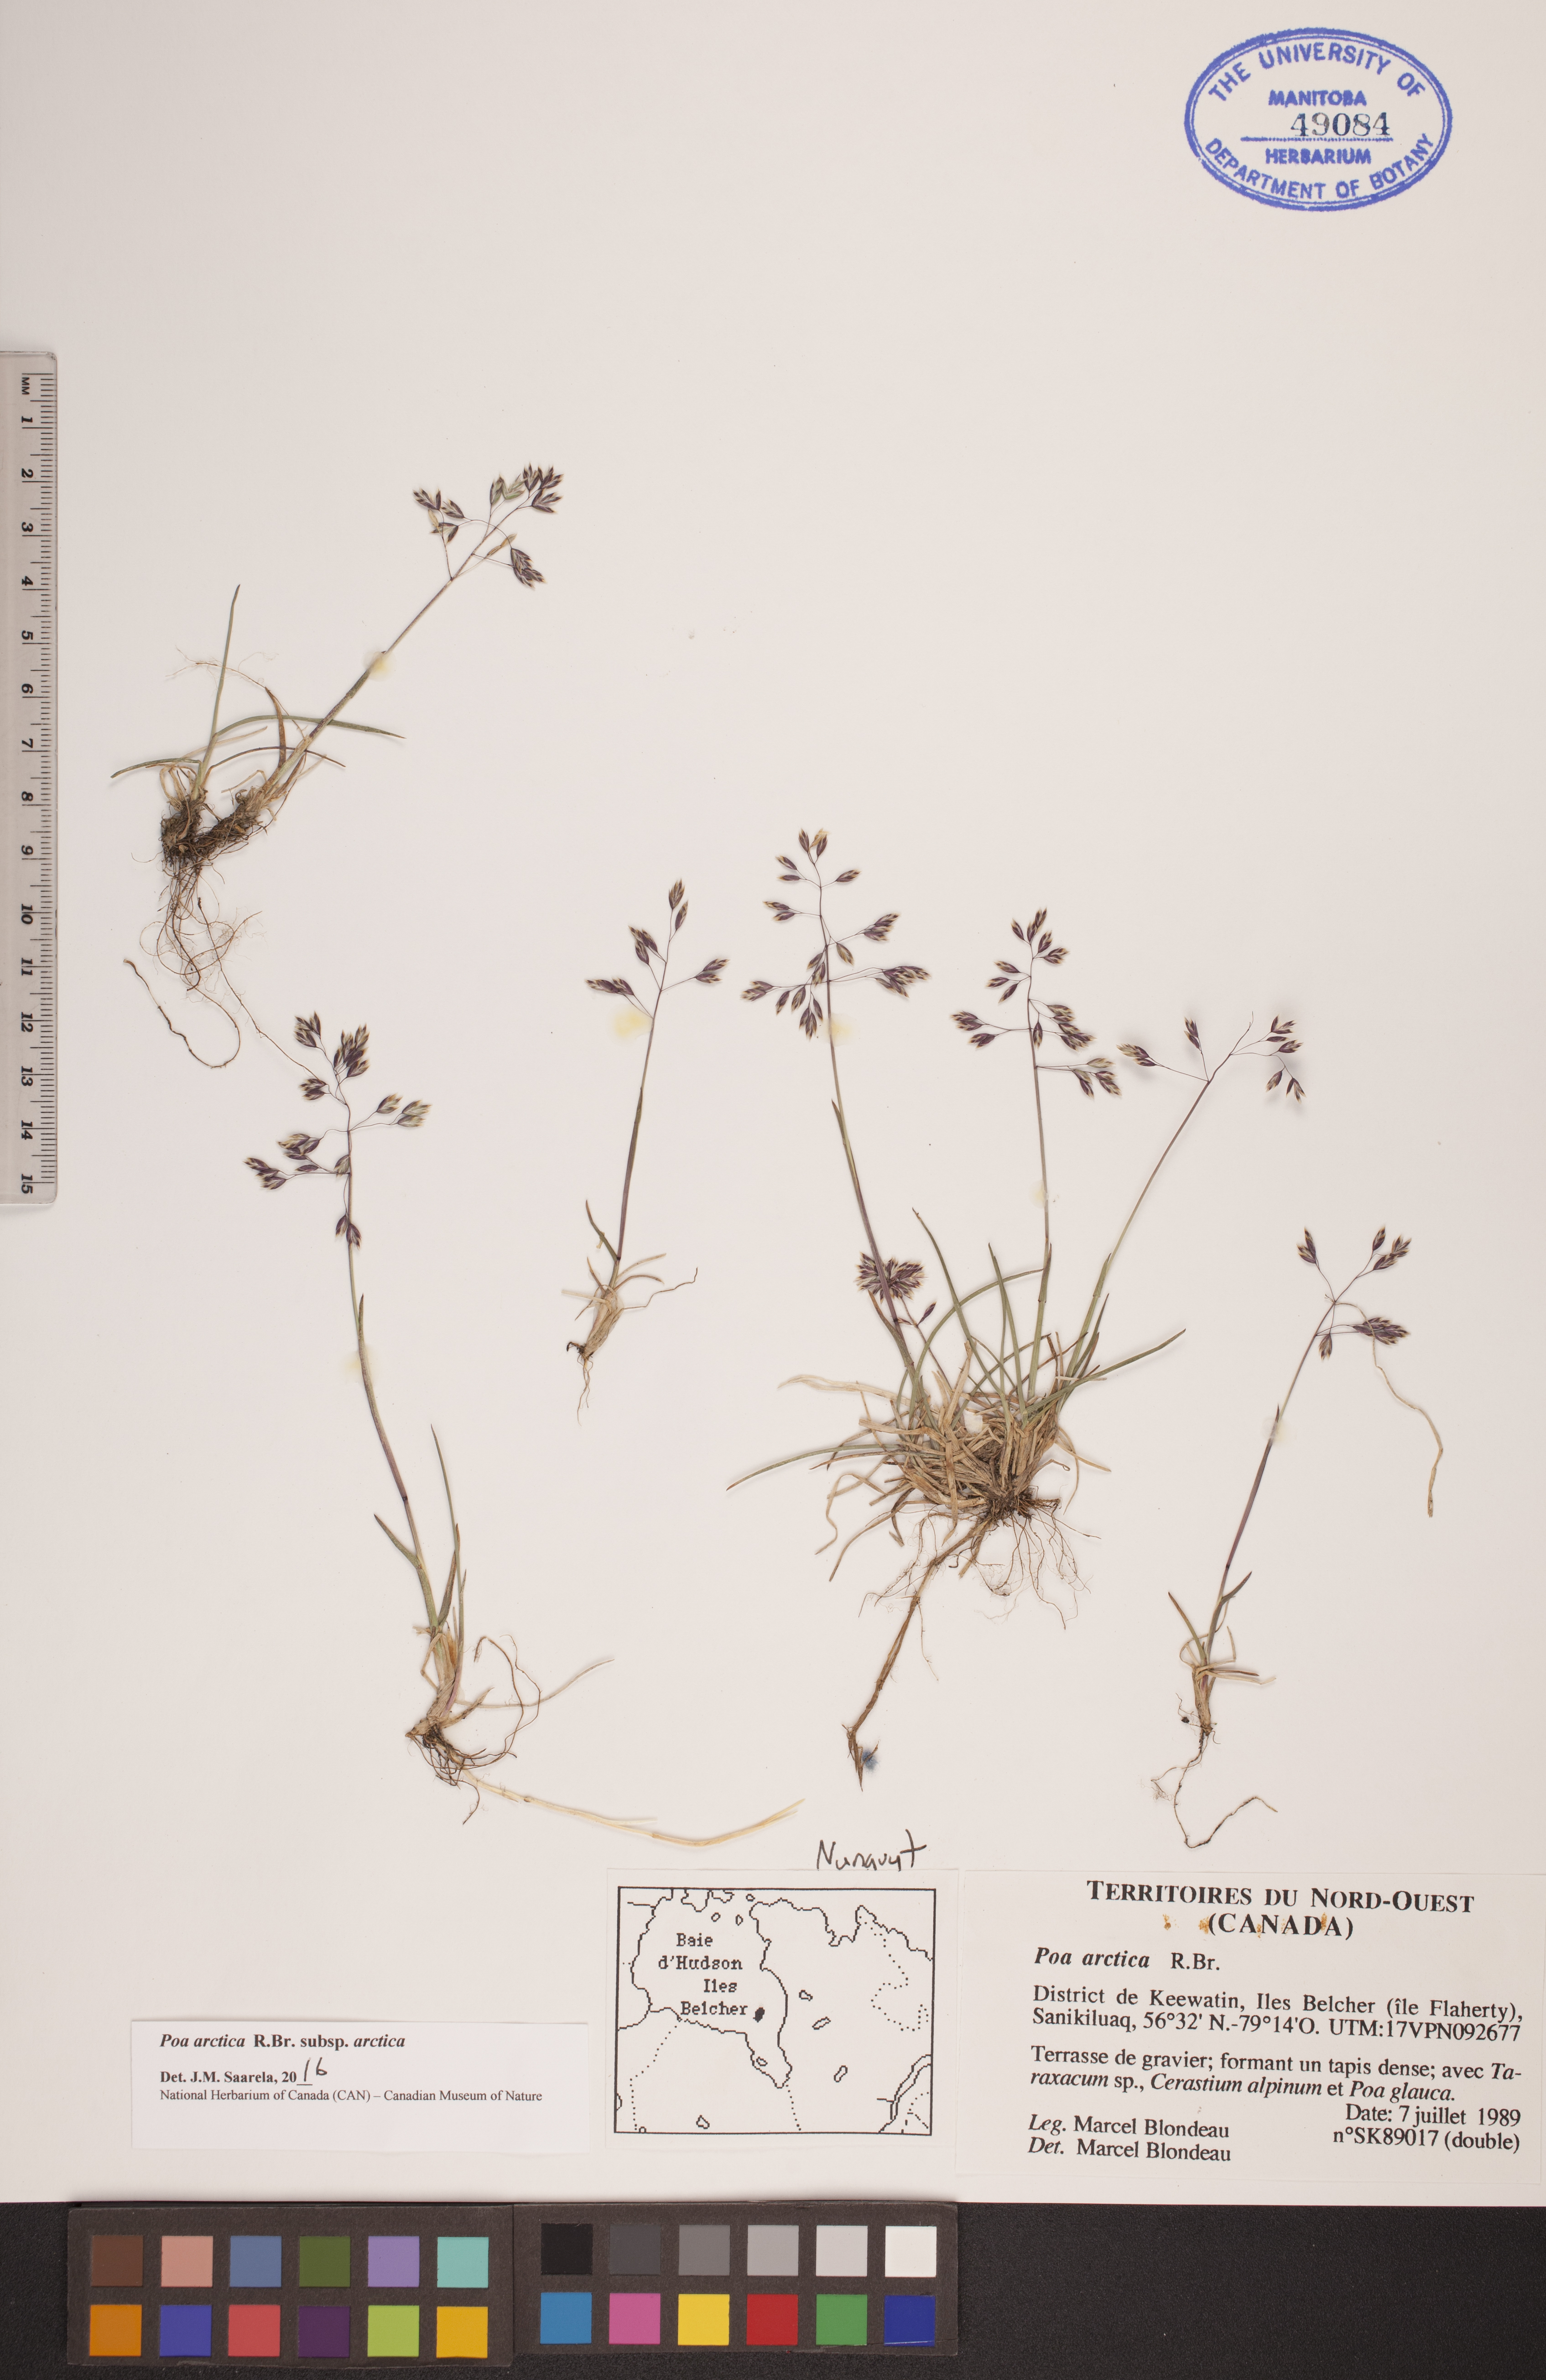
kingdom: Plantae
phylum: Tracheophyta
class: Liliopsida
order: Poales
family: Poaceae
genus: Poa
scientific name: Poa arctica
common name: Arctic bluegrass
